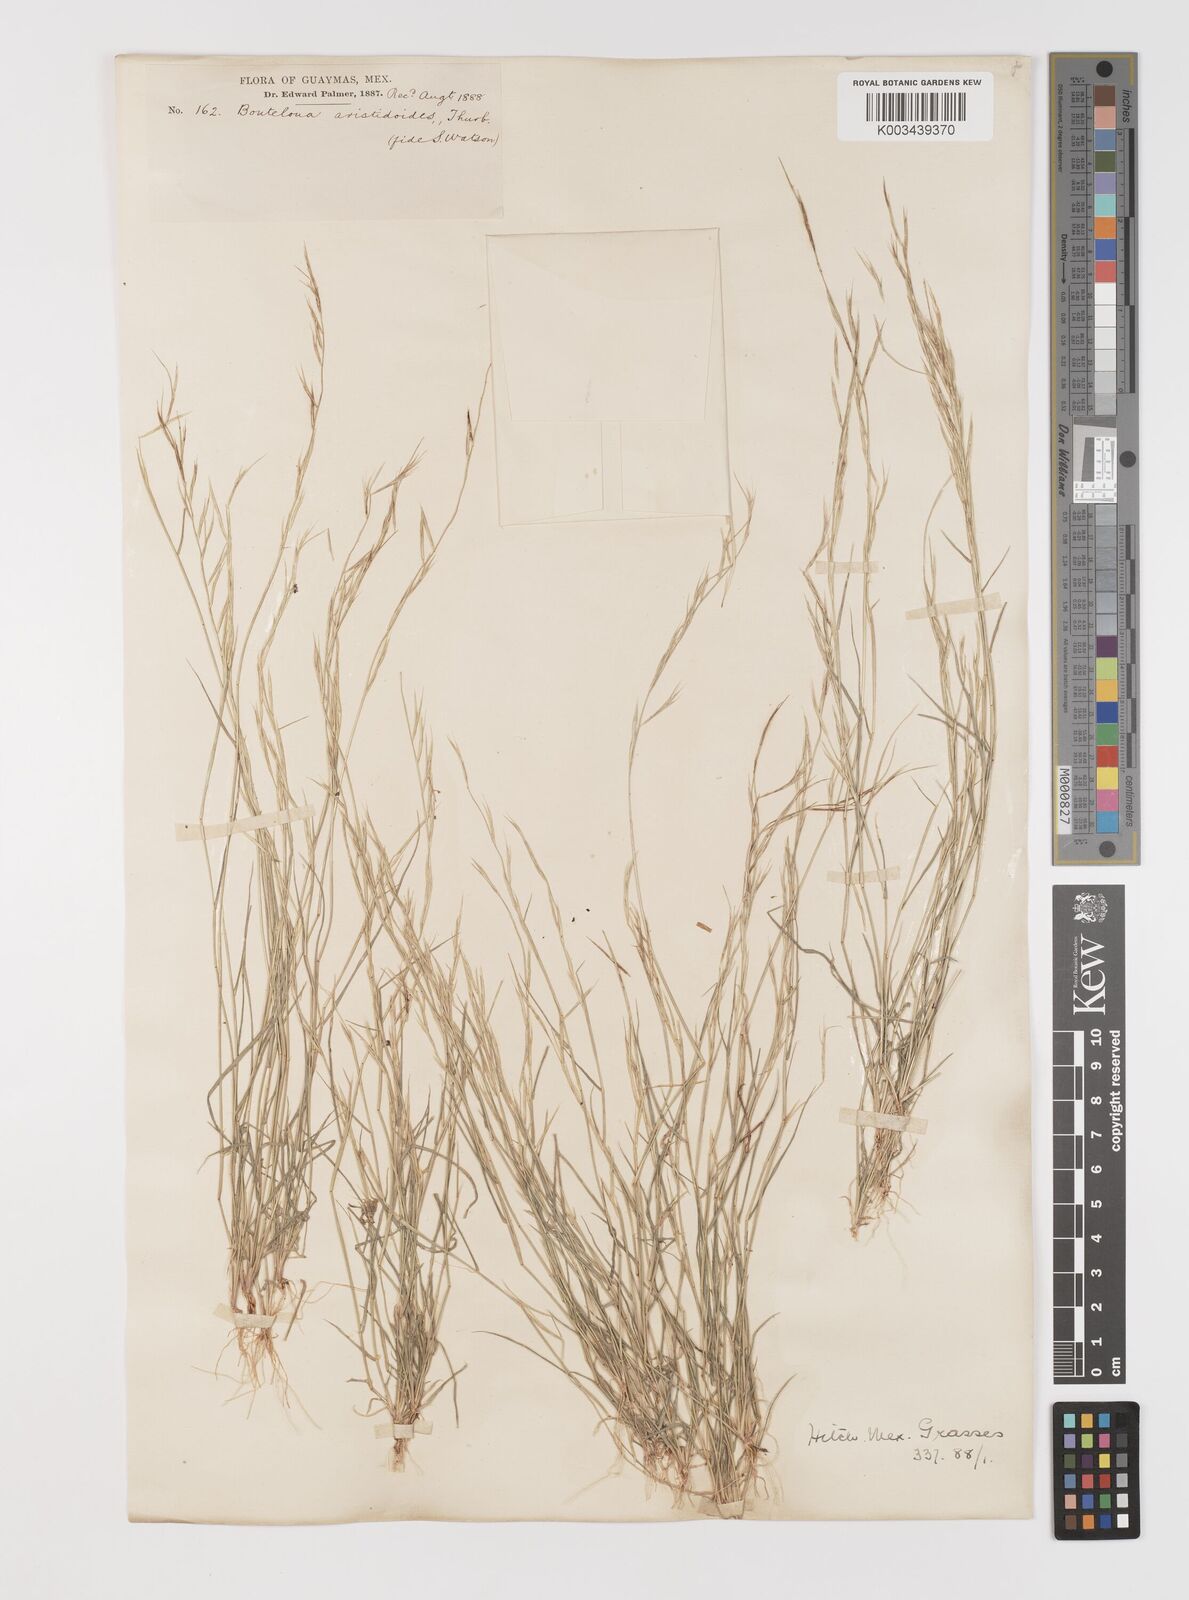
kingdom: Plantae
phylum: Tracheophyta
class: Liliopsida
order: Poales
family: Poaceae
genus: Bouteloua
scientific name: Bouteloua aristidoides
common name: Needle grama
